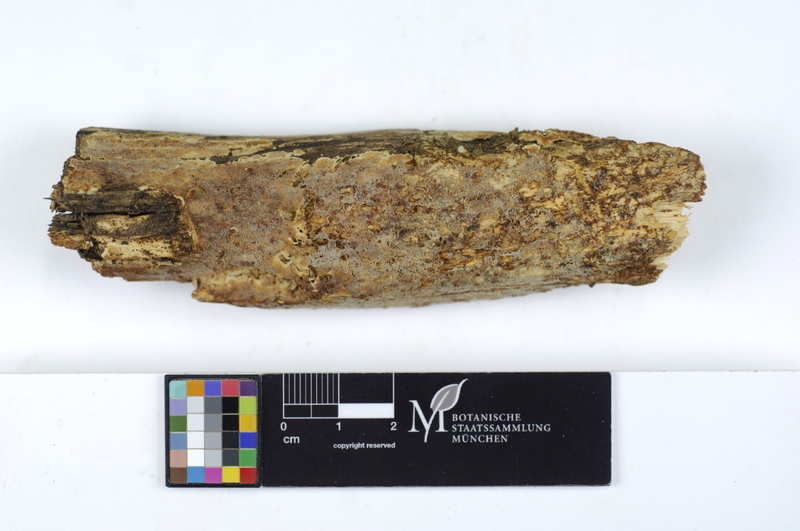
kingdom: Plantae
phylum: Tracheophyta
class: Magnoliopsida
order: Fagales
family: Fagaceae
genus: Quercus
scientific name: Quercus
